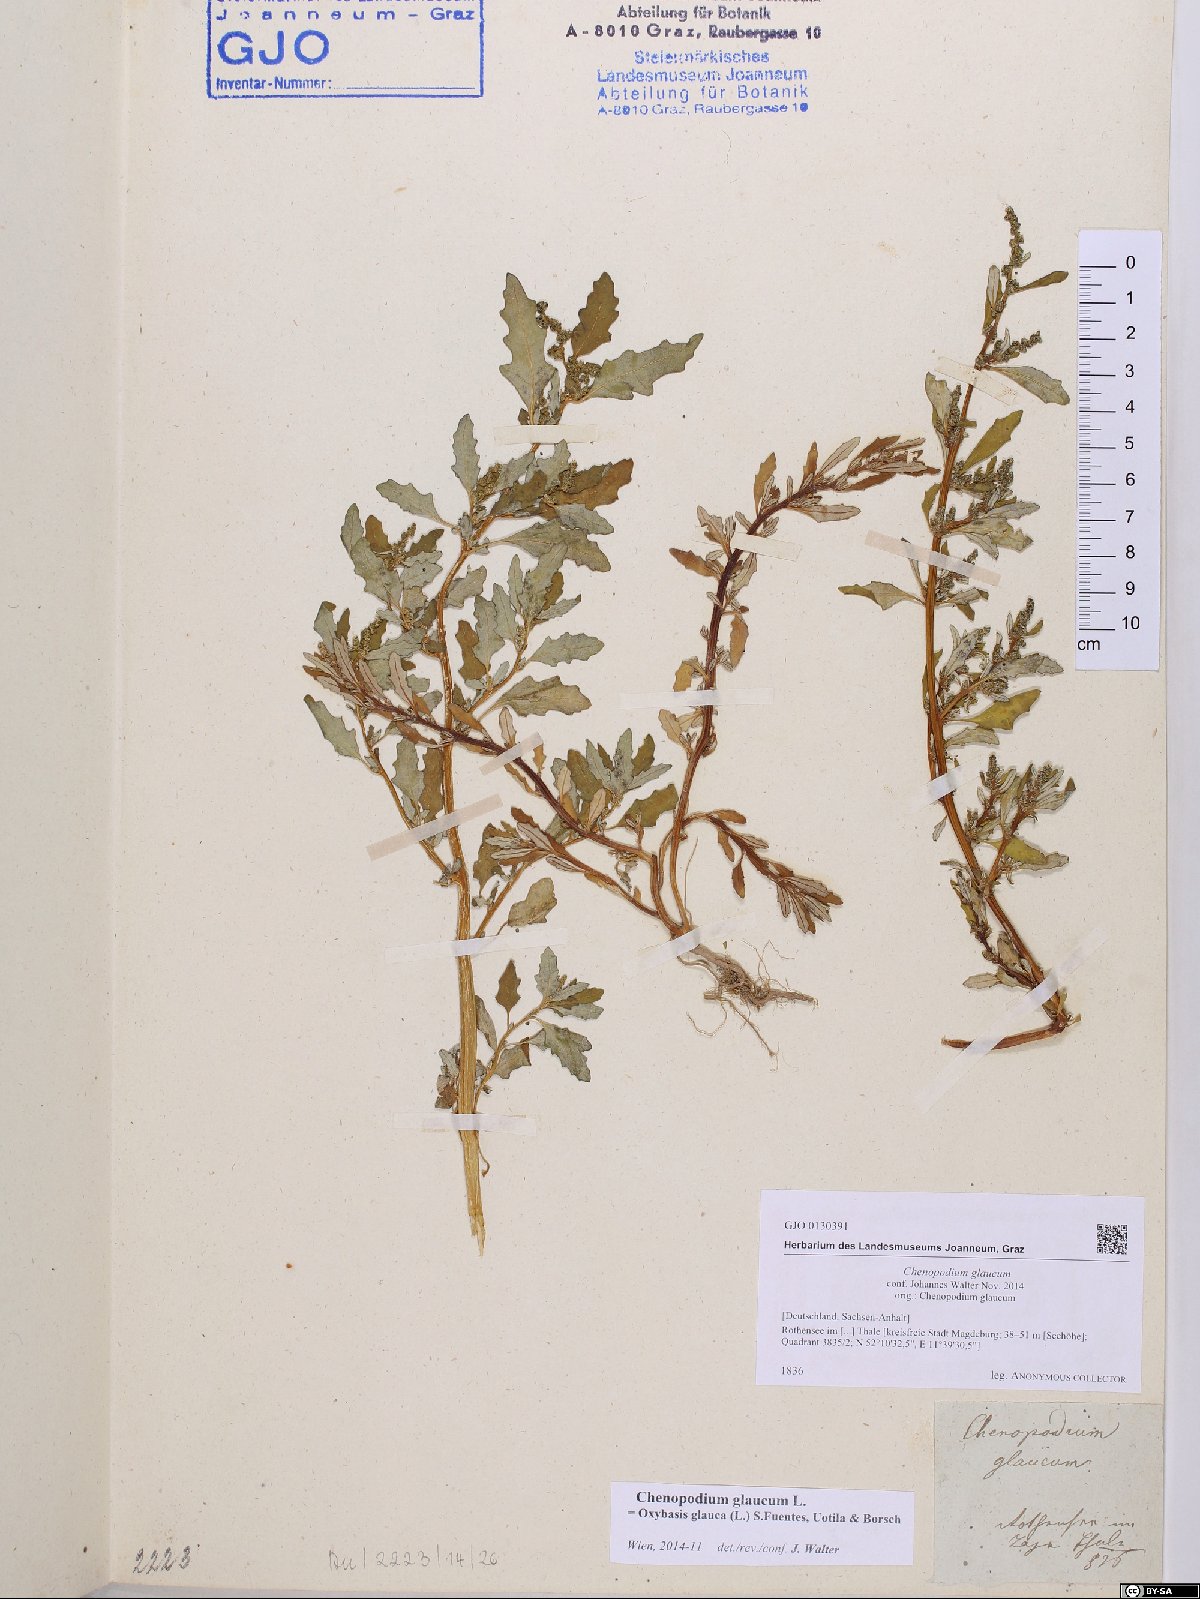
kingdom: Plantae
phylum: Tracheophyta
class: Magnoliopsida
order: Caryophyllales
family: Amaranthaceae
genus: Oxybasis
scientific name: Oxybasis glauca
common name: Glaucous goosefoot
